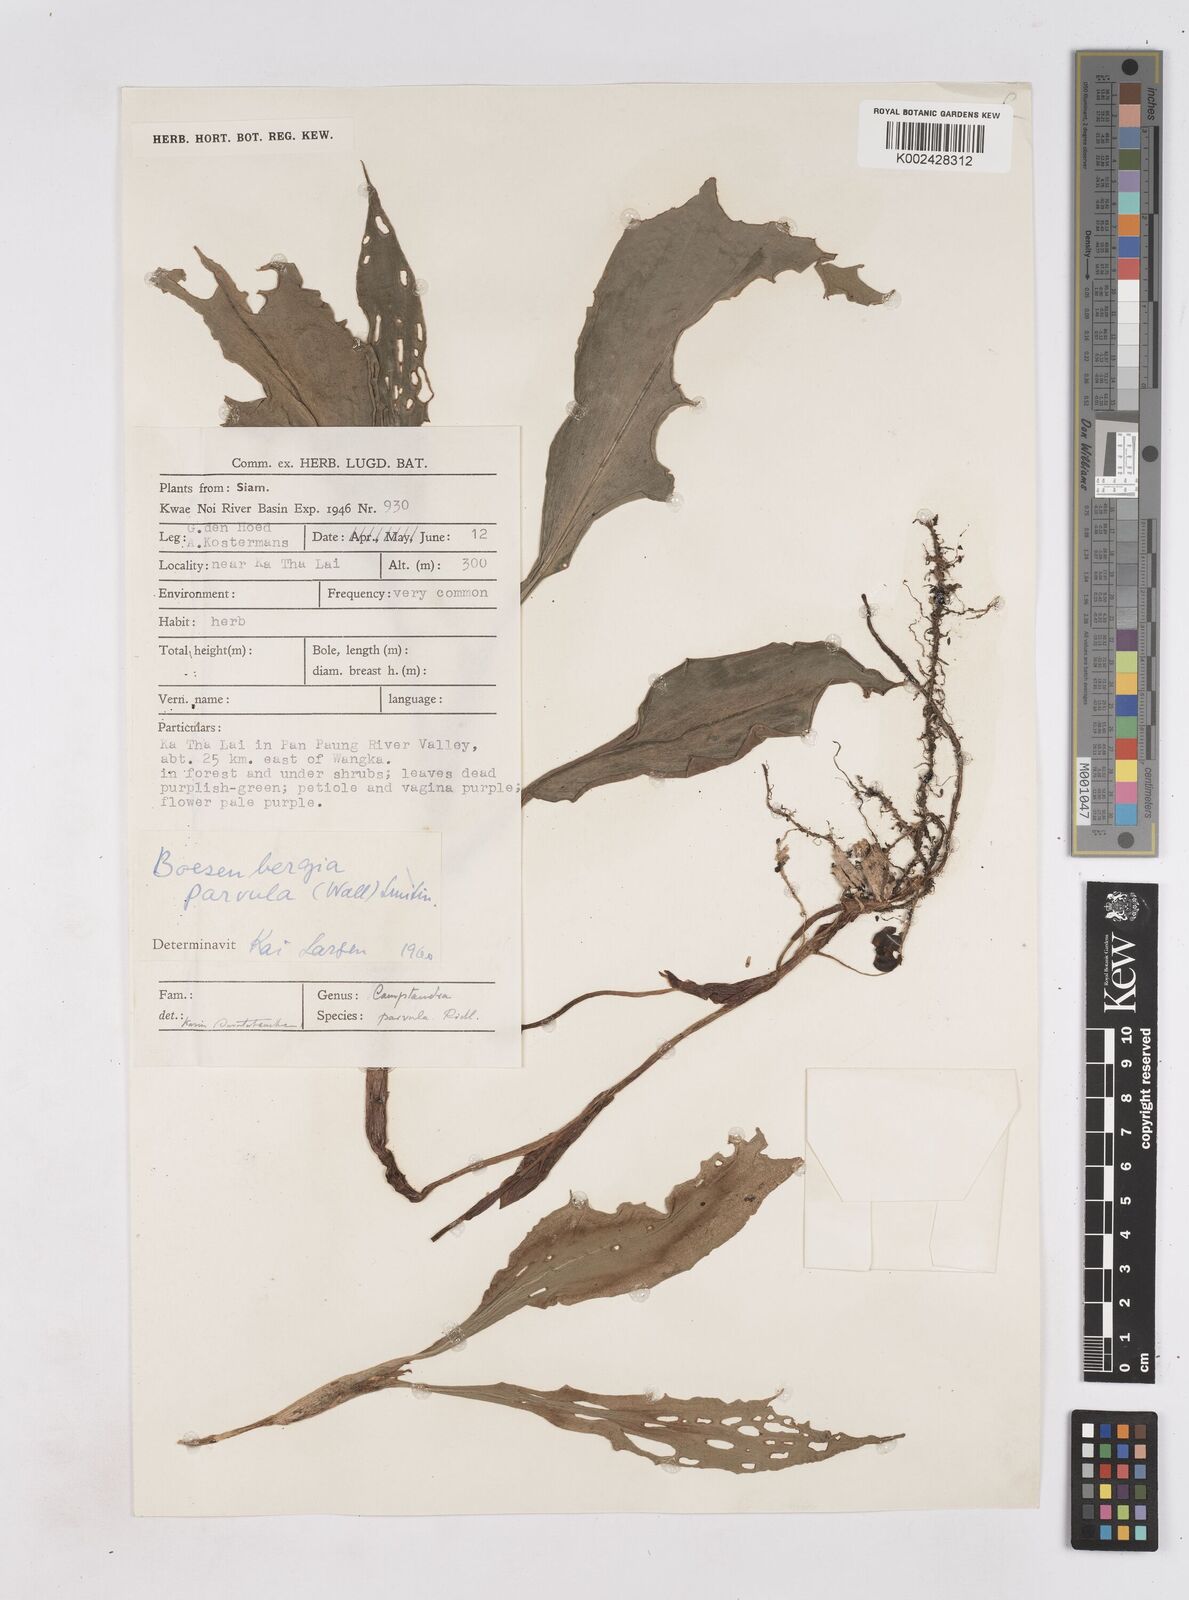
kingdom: Plantae
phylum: Tracheophyta
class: Liliopsida
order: Zingiberales
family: Zingiberaceae
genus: Boesenbergia
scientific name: Boesenbergia parvula
